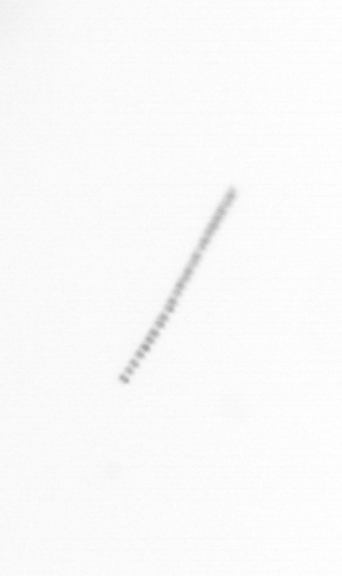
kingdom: Chromista
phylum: Ochrophyta
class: Bacillariophyceae
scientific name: Bacillariophyceae
